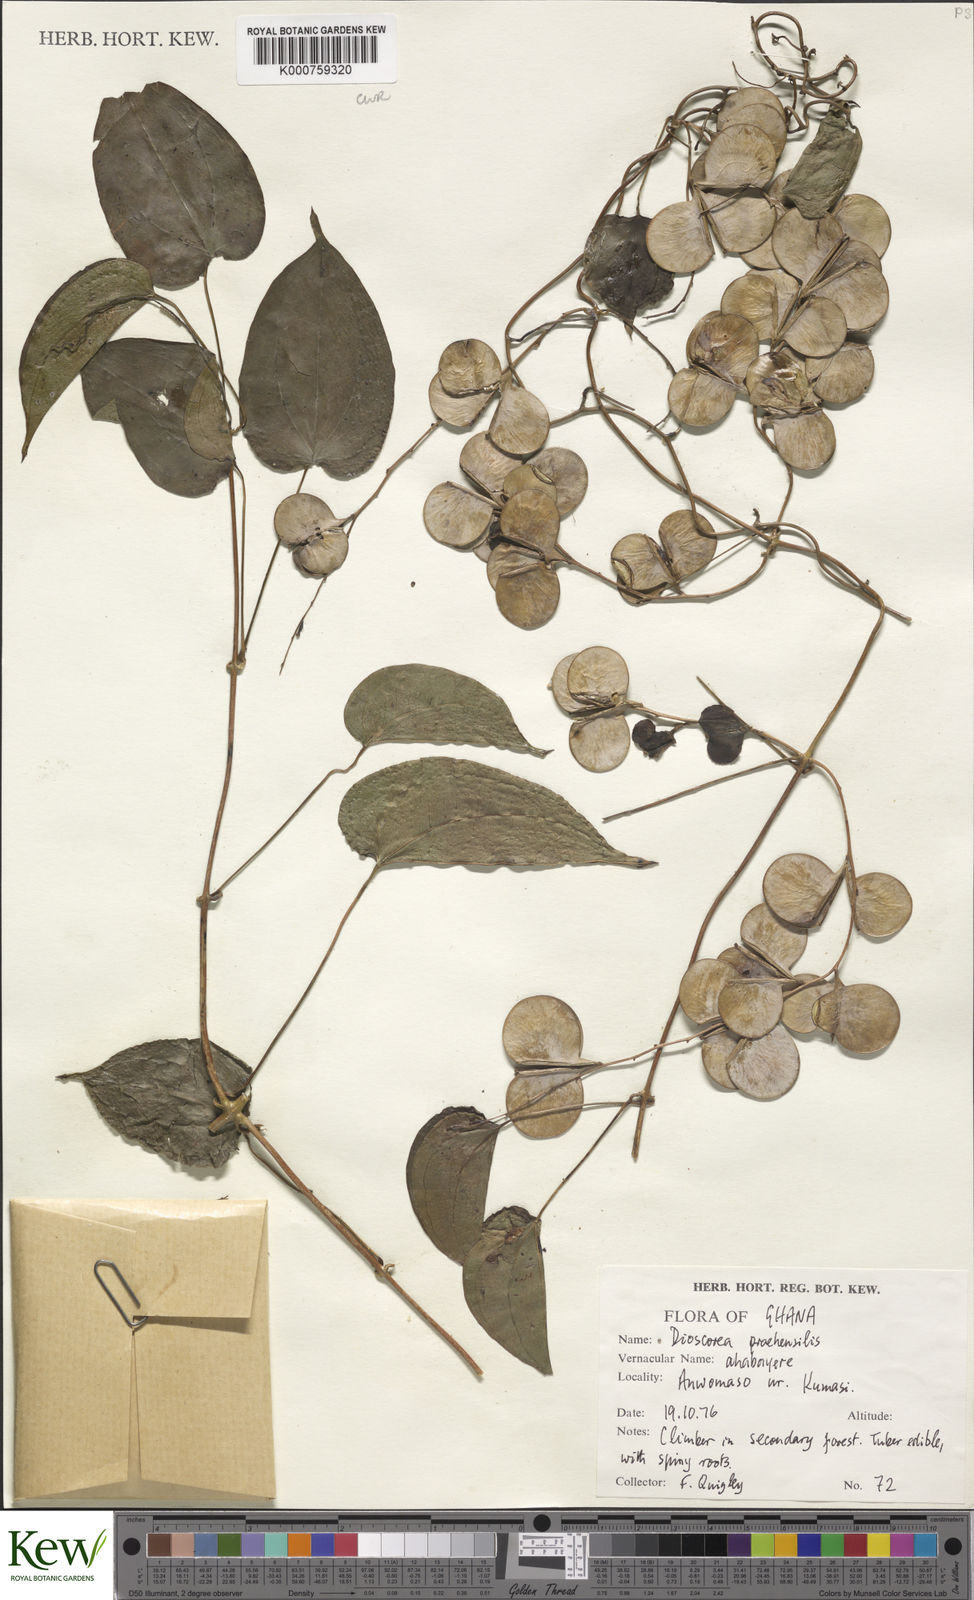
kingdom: Plantae
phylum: Tracheophyta
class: Liliopsida
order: Dioscoreales
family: Dioscoreaceae
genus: Dioscorea
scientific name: Dioscorea praehensilis
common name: Bush yam
